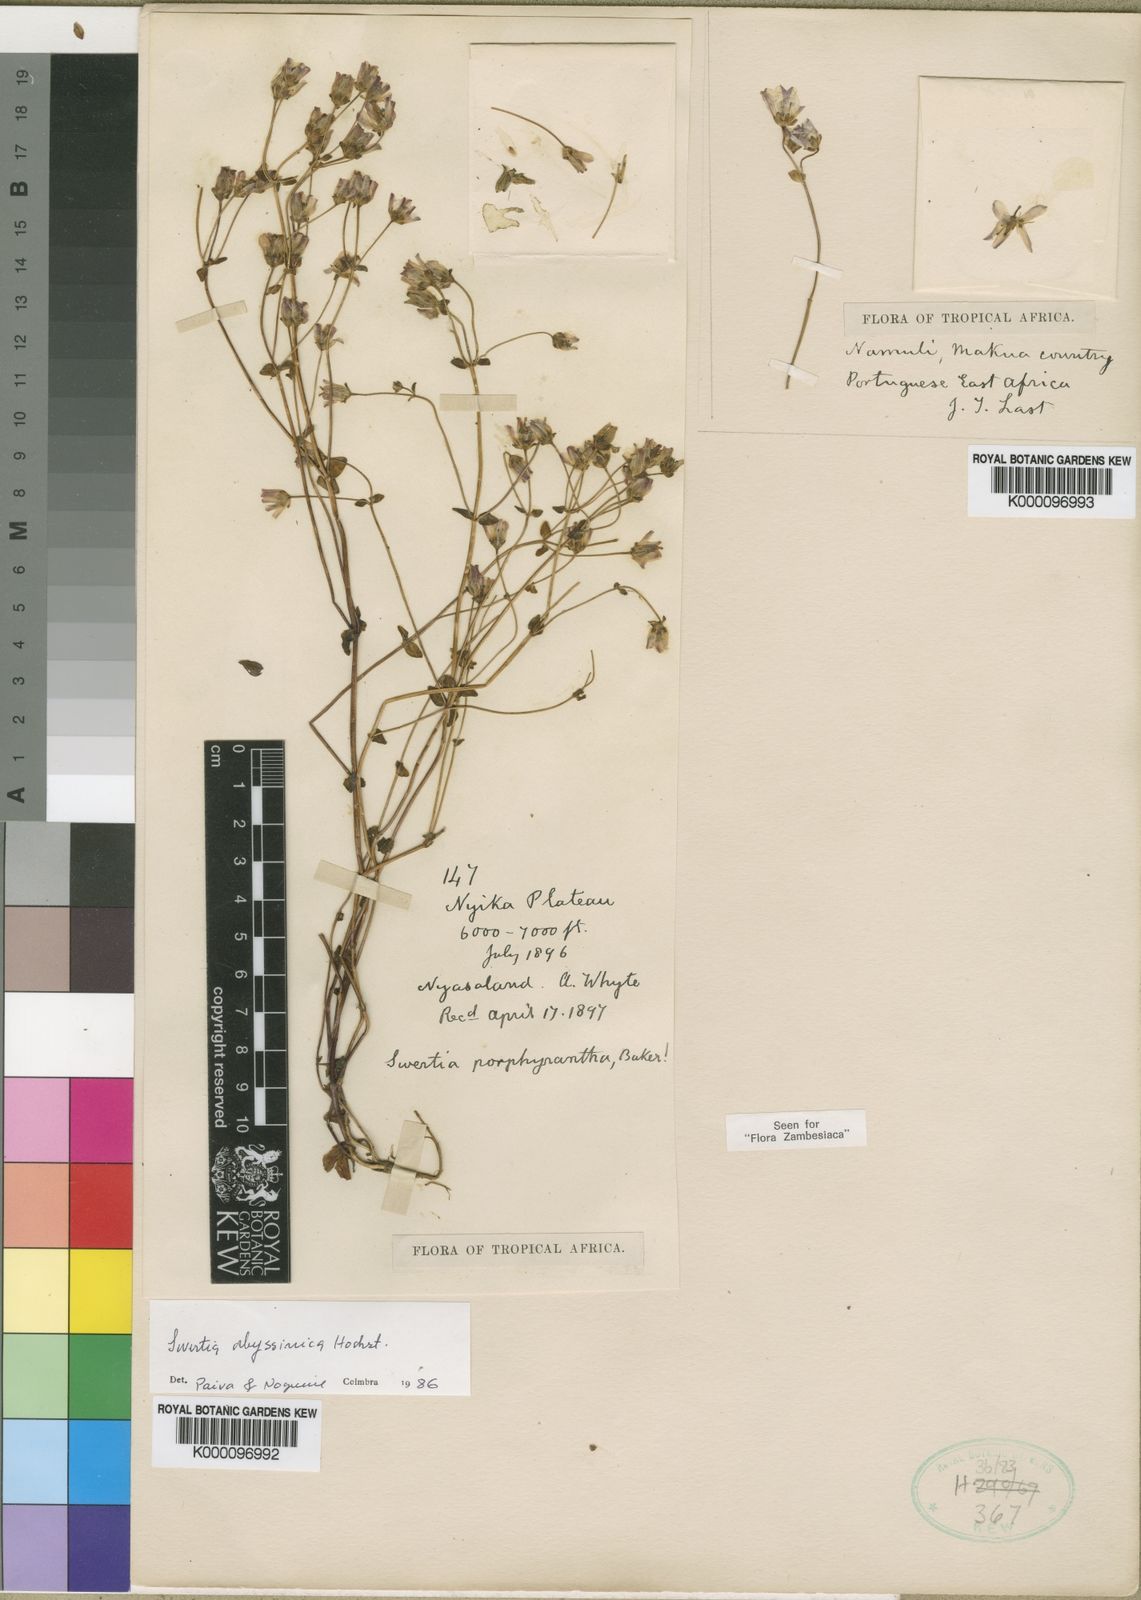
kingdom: Plantae
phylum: Tracheophyta
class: Magnoliopsida
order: Gentianales
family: Gentianaceae
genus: Swertia
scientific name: Swertia abyssinica
